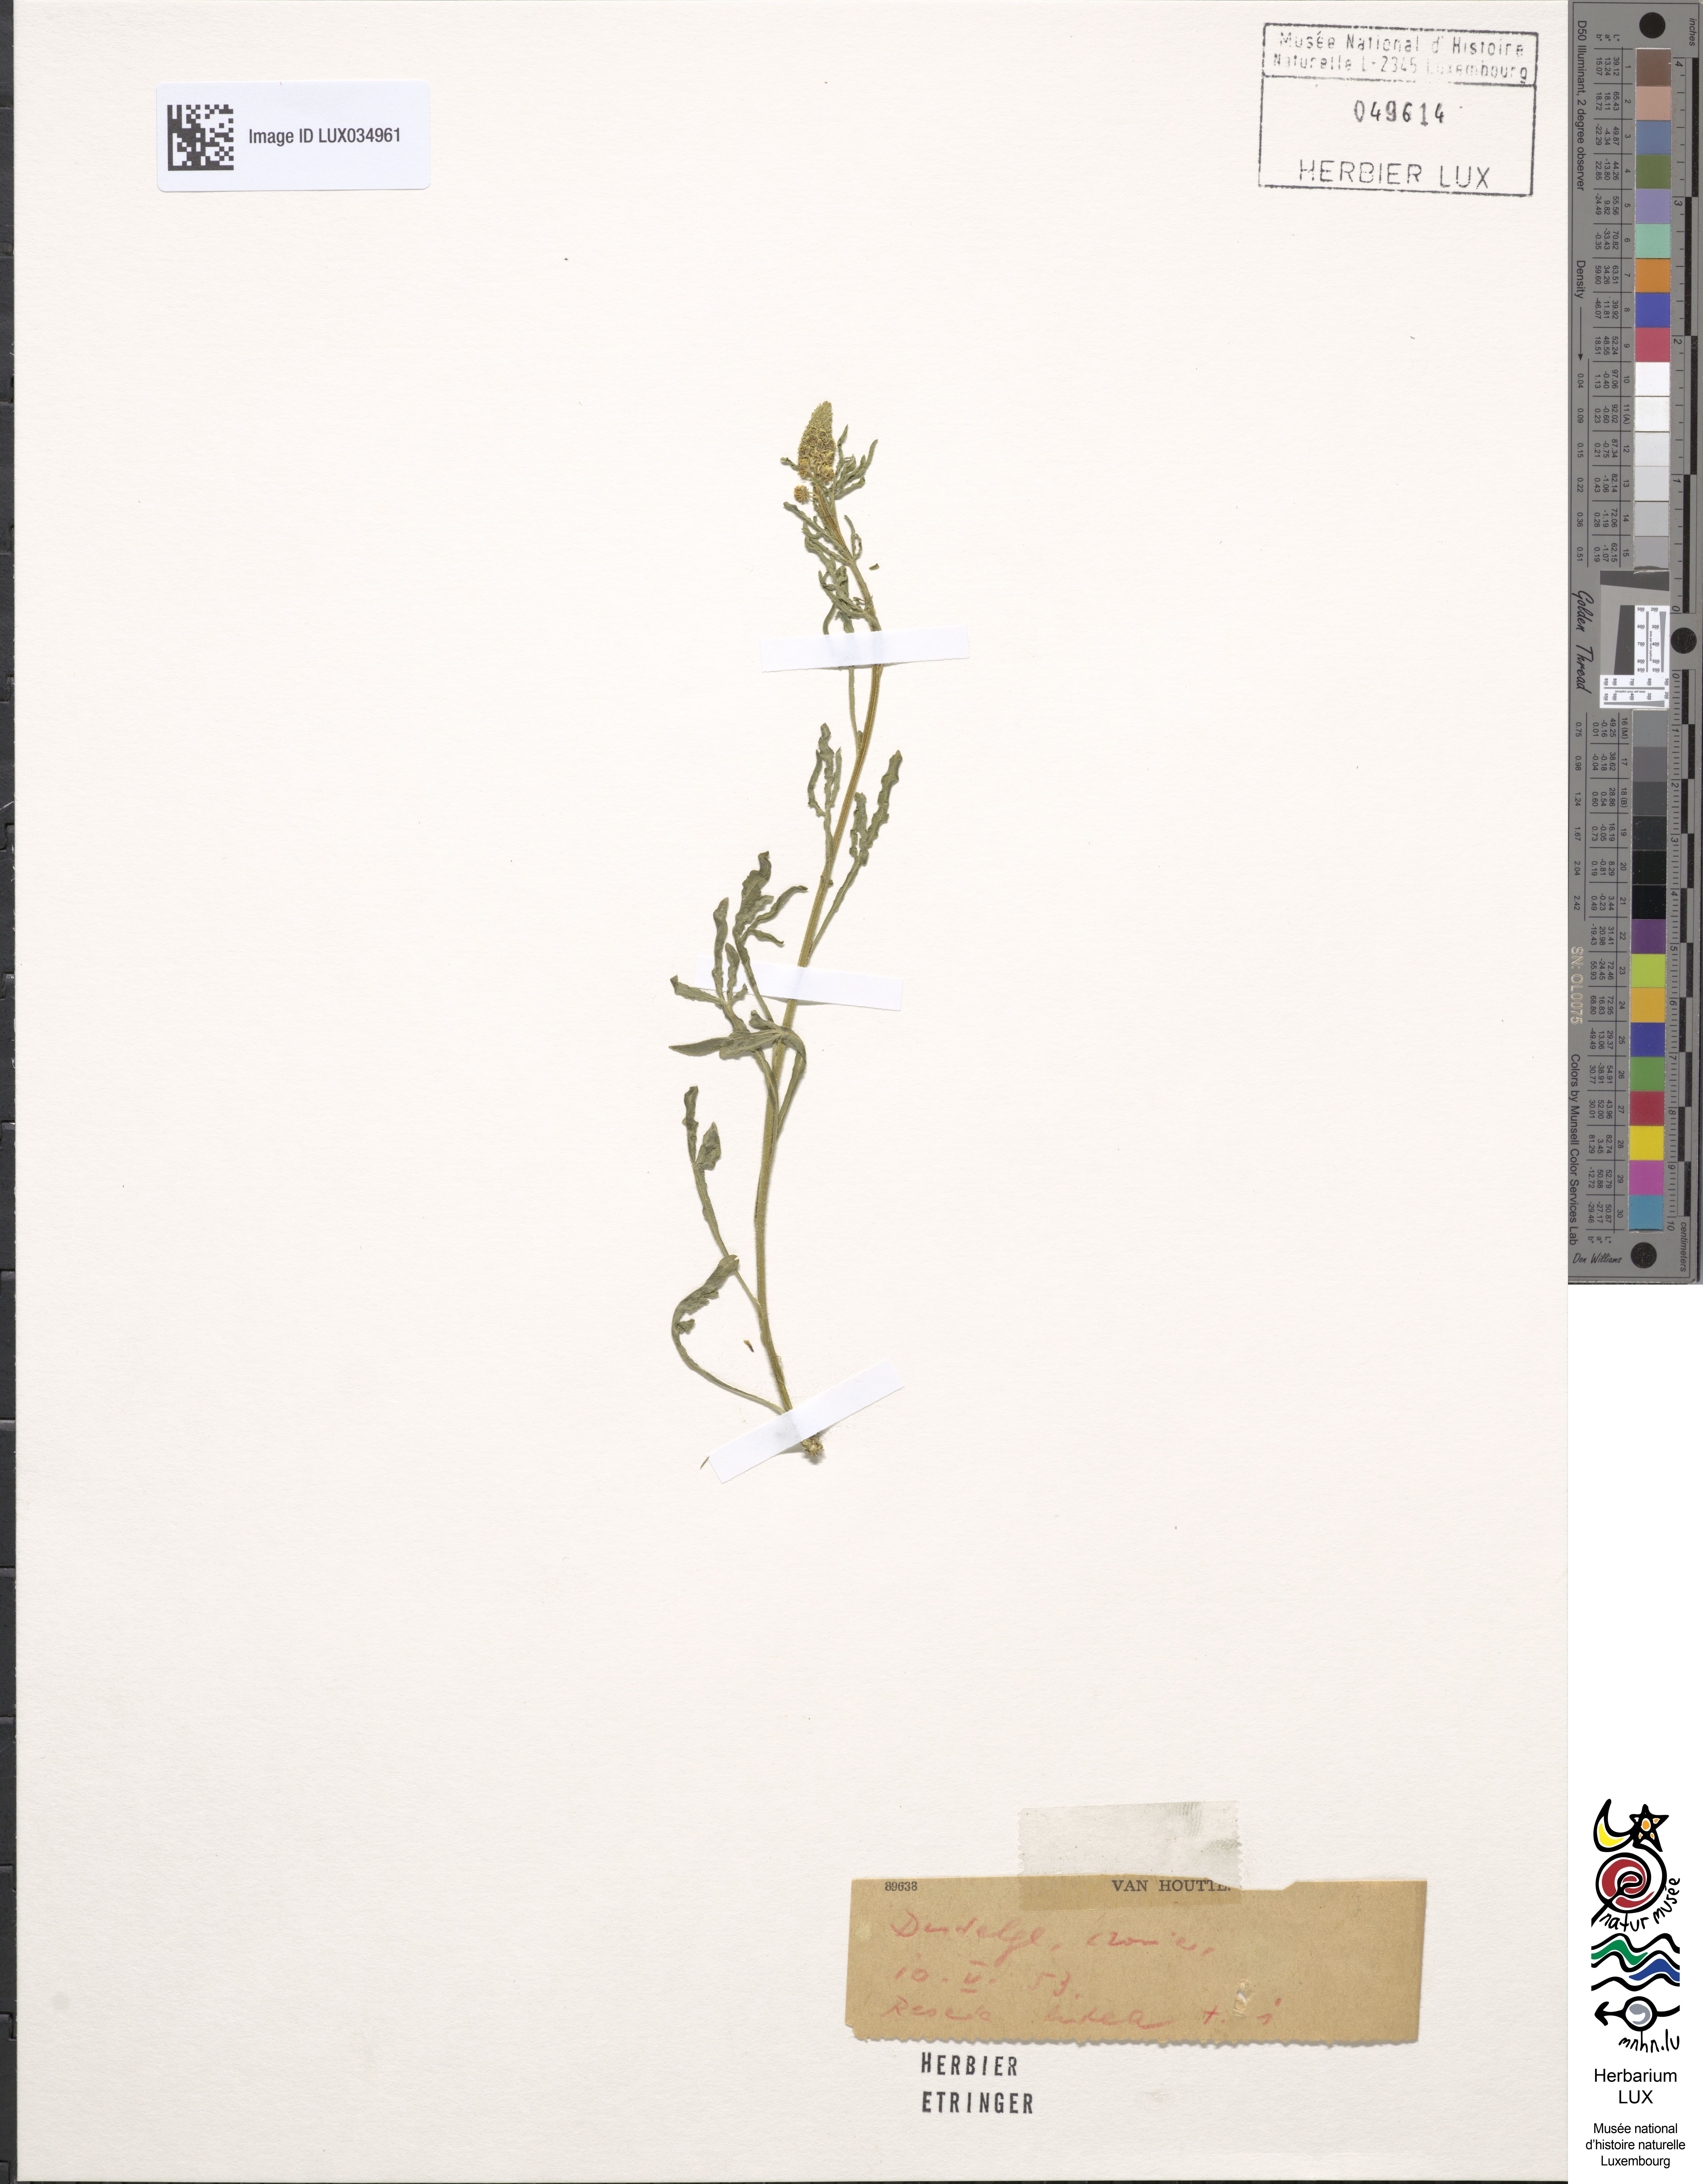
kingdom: Plantae
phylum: Tracheophyta
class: Magnoliopsida
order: Brassicales
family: Resedaceae
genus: Reseda
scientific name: Reseda luteola
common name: Weld
